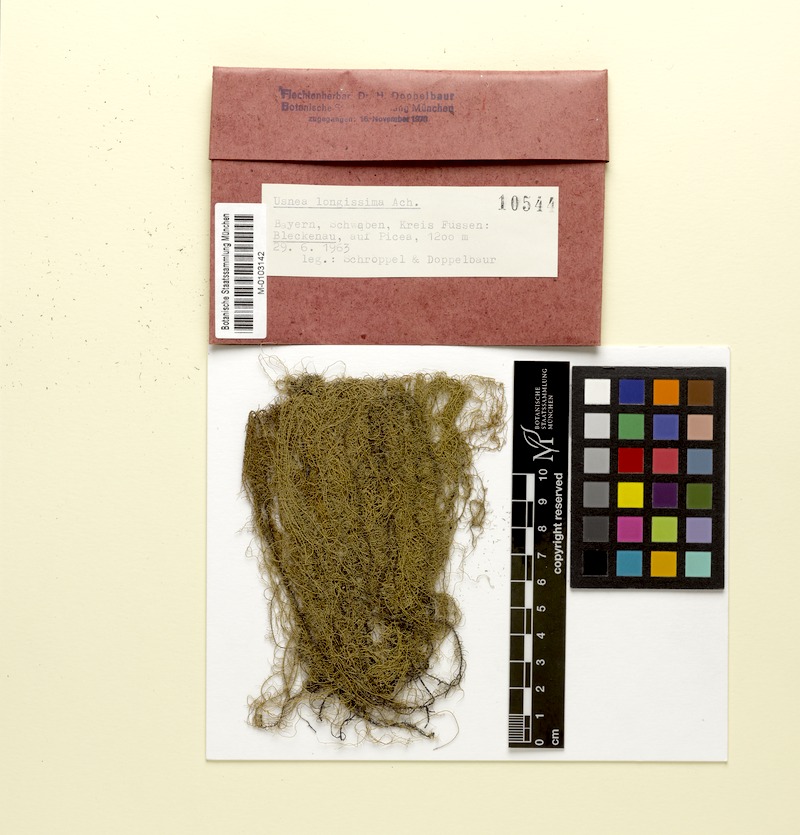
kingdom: Fungi
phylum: Ascomycota
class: Lecanoromycetes
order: Lecanorales
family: Parmeliaceae
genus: Dolichousnea
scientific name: Dolichousnea longissima
